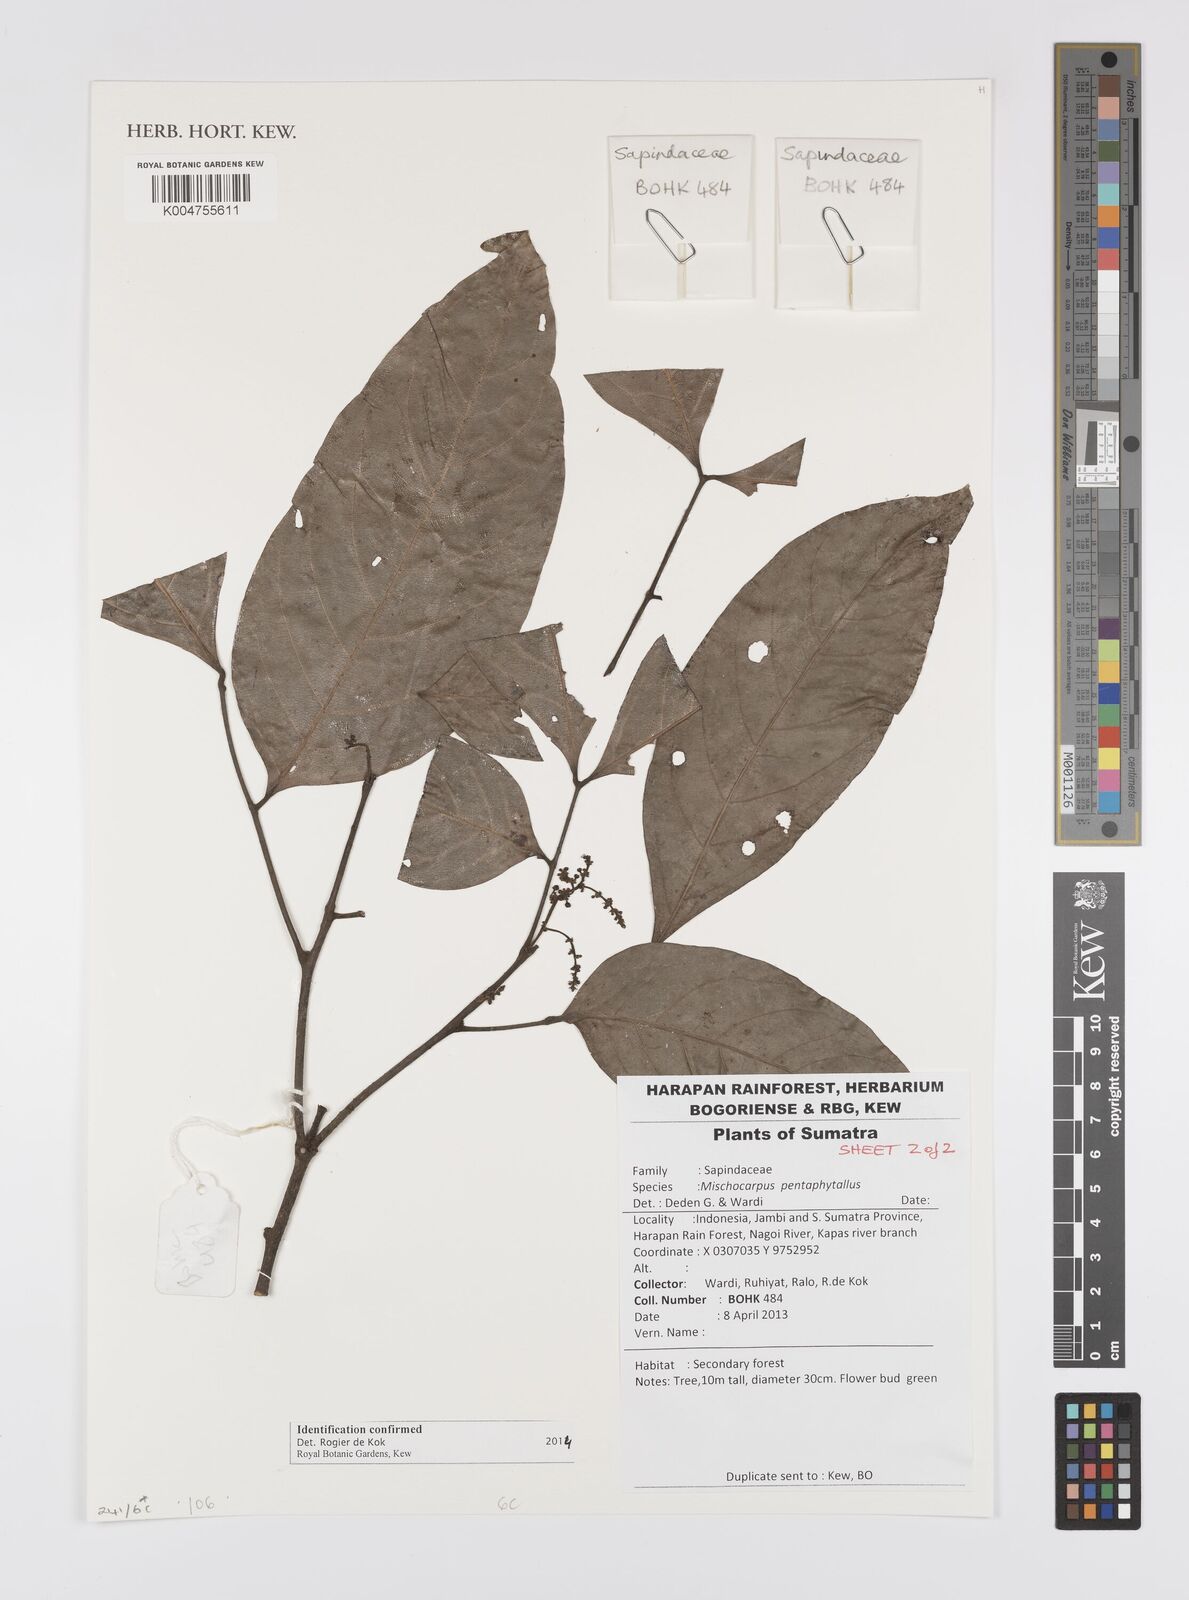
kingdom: Plantae
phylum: Tracheophyta
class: Magnoliopsida
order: Sapindales
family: Sapindaceae
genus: Mischocarpus
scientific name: Mischocarpus
